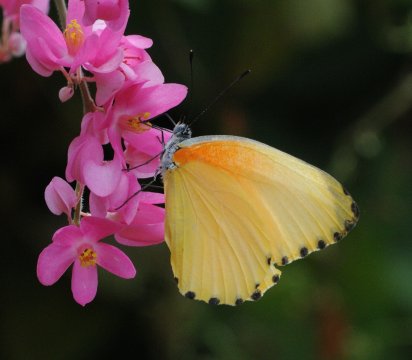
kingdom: Animalia
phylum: Arthropoda
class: Insecta
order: Lepidoptera
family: Pieridae
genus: Mylothris
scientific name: Mylothris agathina
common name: Eastern Dotted Border
